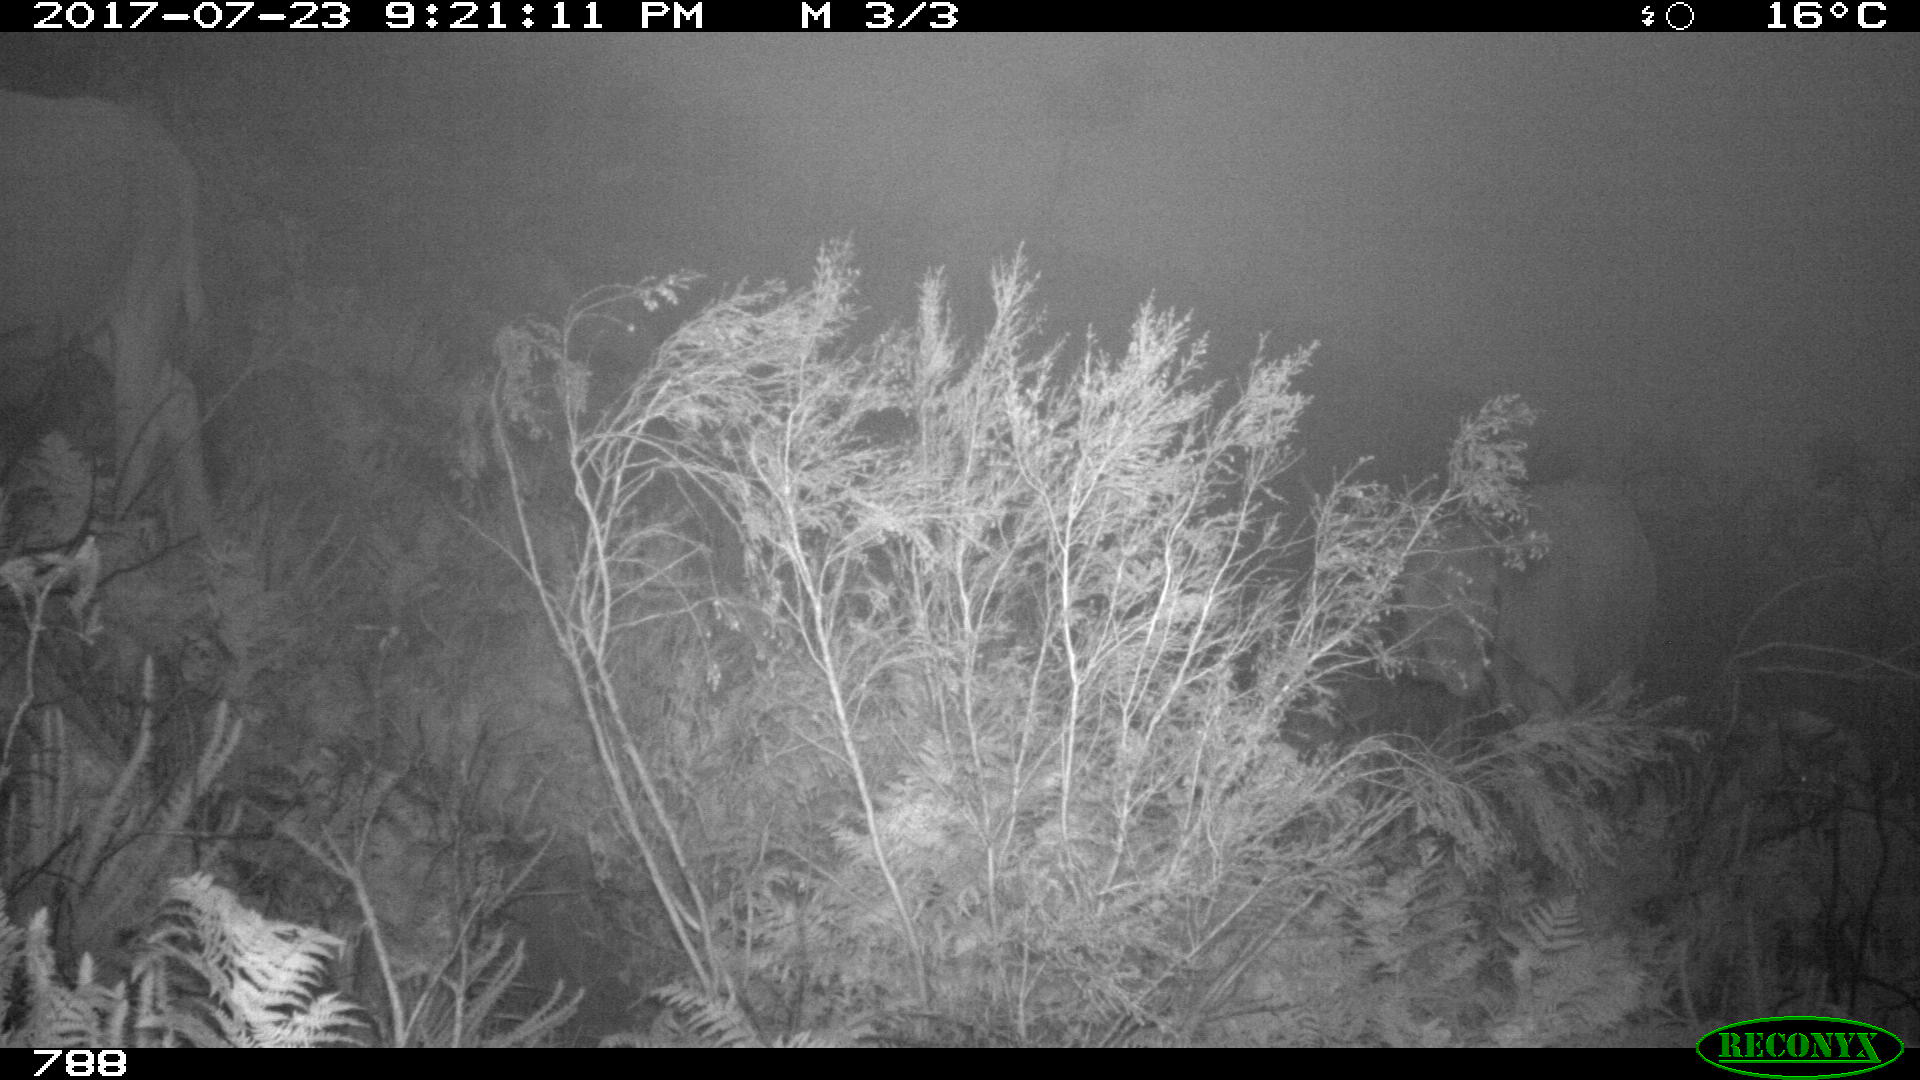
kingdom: Animalia
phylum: Chordata
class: Mammalia
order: Artiodactyla
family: Bovidae
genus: Bos
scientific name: Bos taurus
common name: Domesticated cattle
